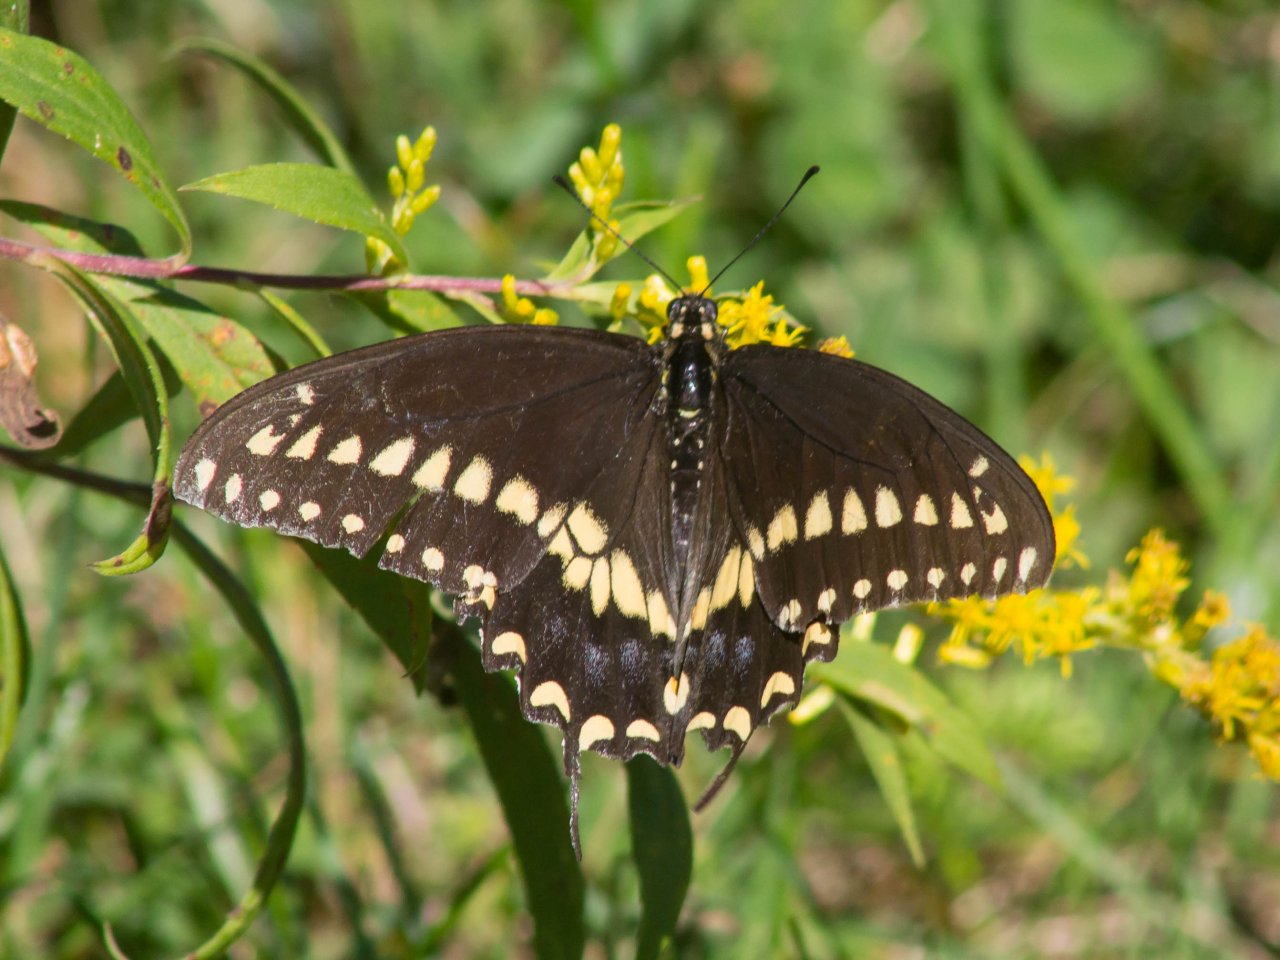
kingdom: Animalia
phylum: Arthropoda
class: Insecta
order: Lepidoptera
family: Papilionidae
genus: Papilio
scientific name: Papilio polyxenes
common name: Black Swallowtail
